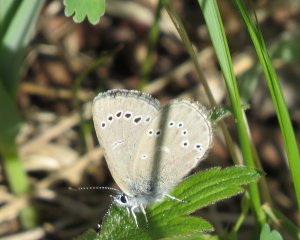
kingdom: Animalia
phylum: Arthropoda
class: Insecta
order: Lepidoptera
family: Lycaenidae
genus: Glaucopsyche
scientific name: Glaucopsyche lygdamus
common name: Silvery Blue
